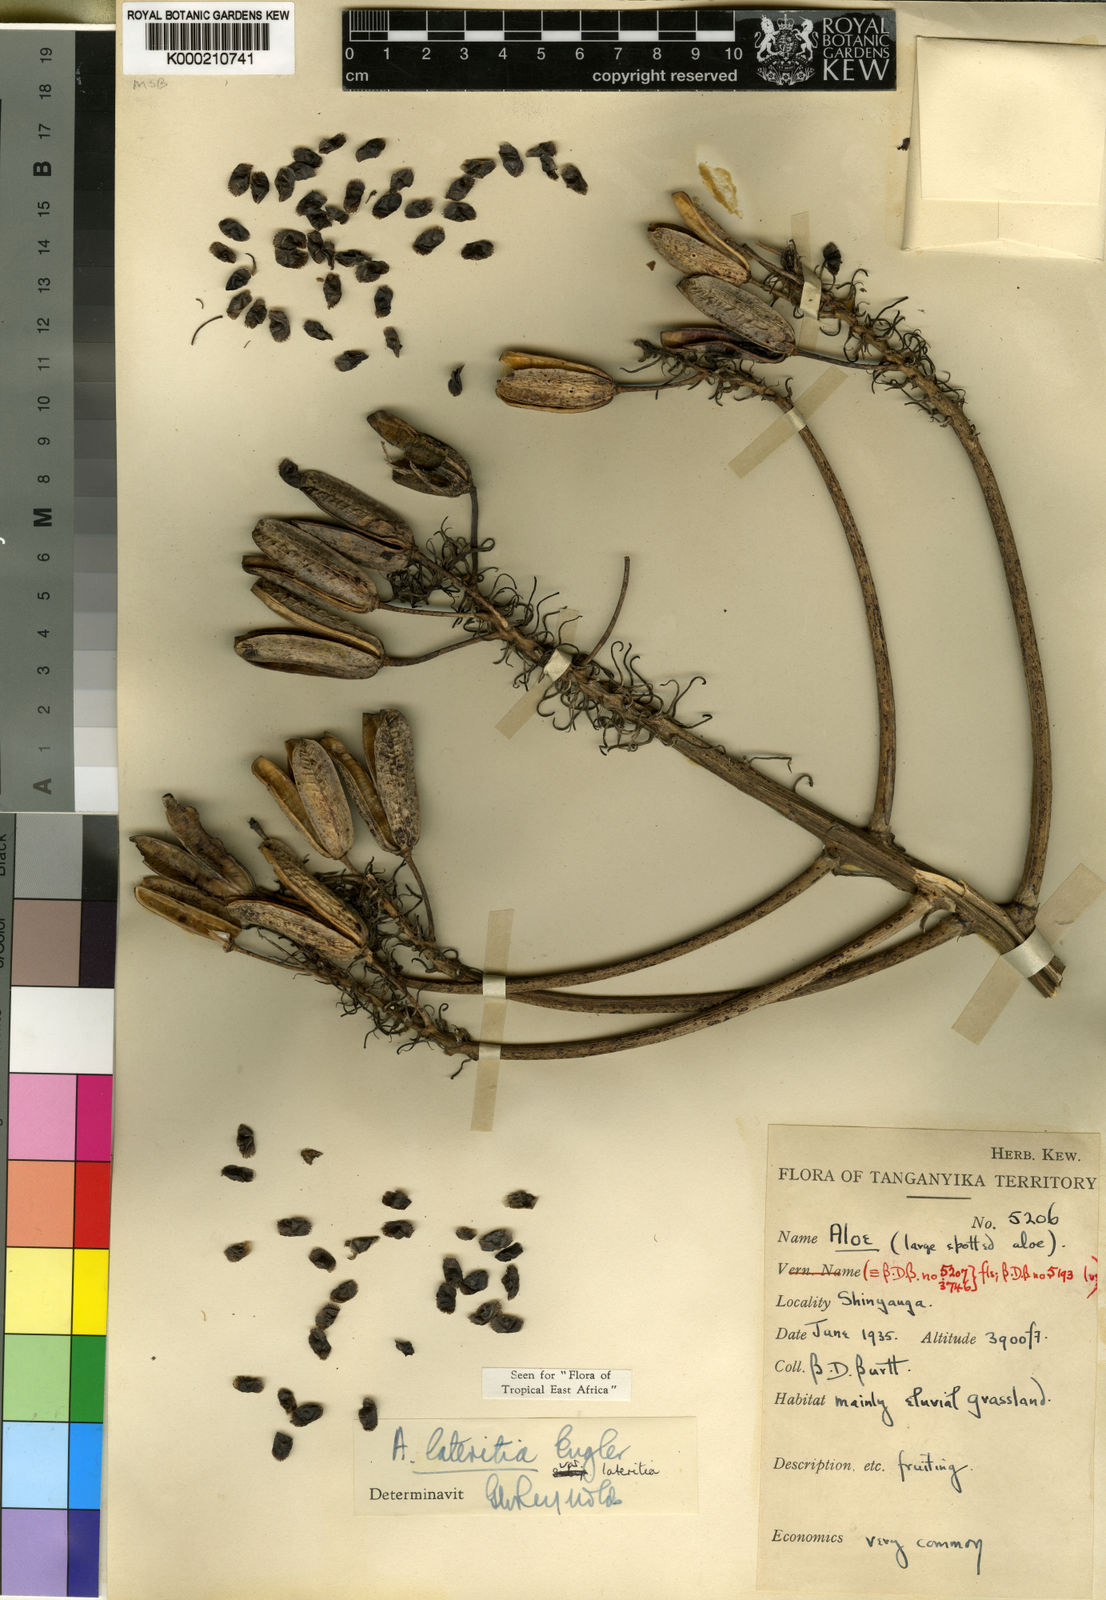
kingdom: Plantae
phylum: Tracheophyta
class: Liliopsida
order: Asparagales
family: Asphodelaceae
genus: Aloe
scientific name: Aloe lateritia
